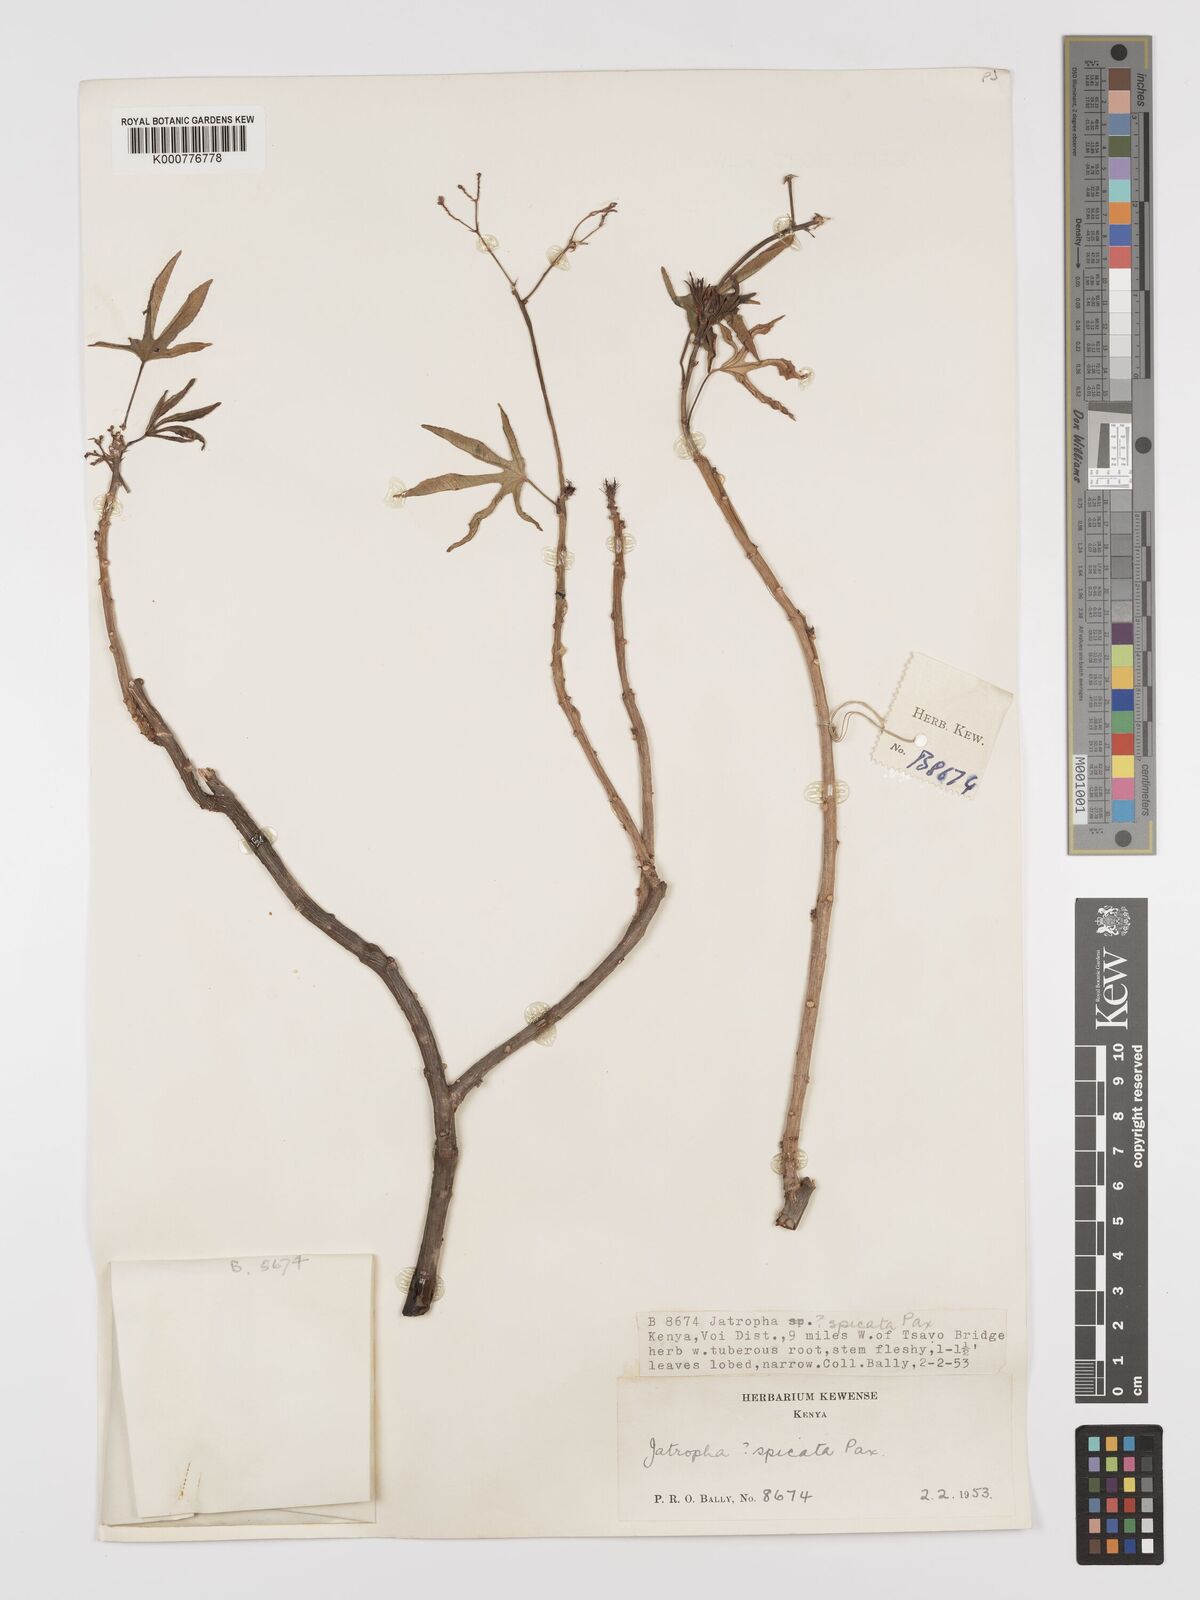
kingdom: Plantae
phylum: Tracheophyta
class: Magnoliopsida
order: Malpighiales
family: Euphorbiaceae
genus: Jatropha
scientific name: Jatropha spicata
